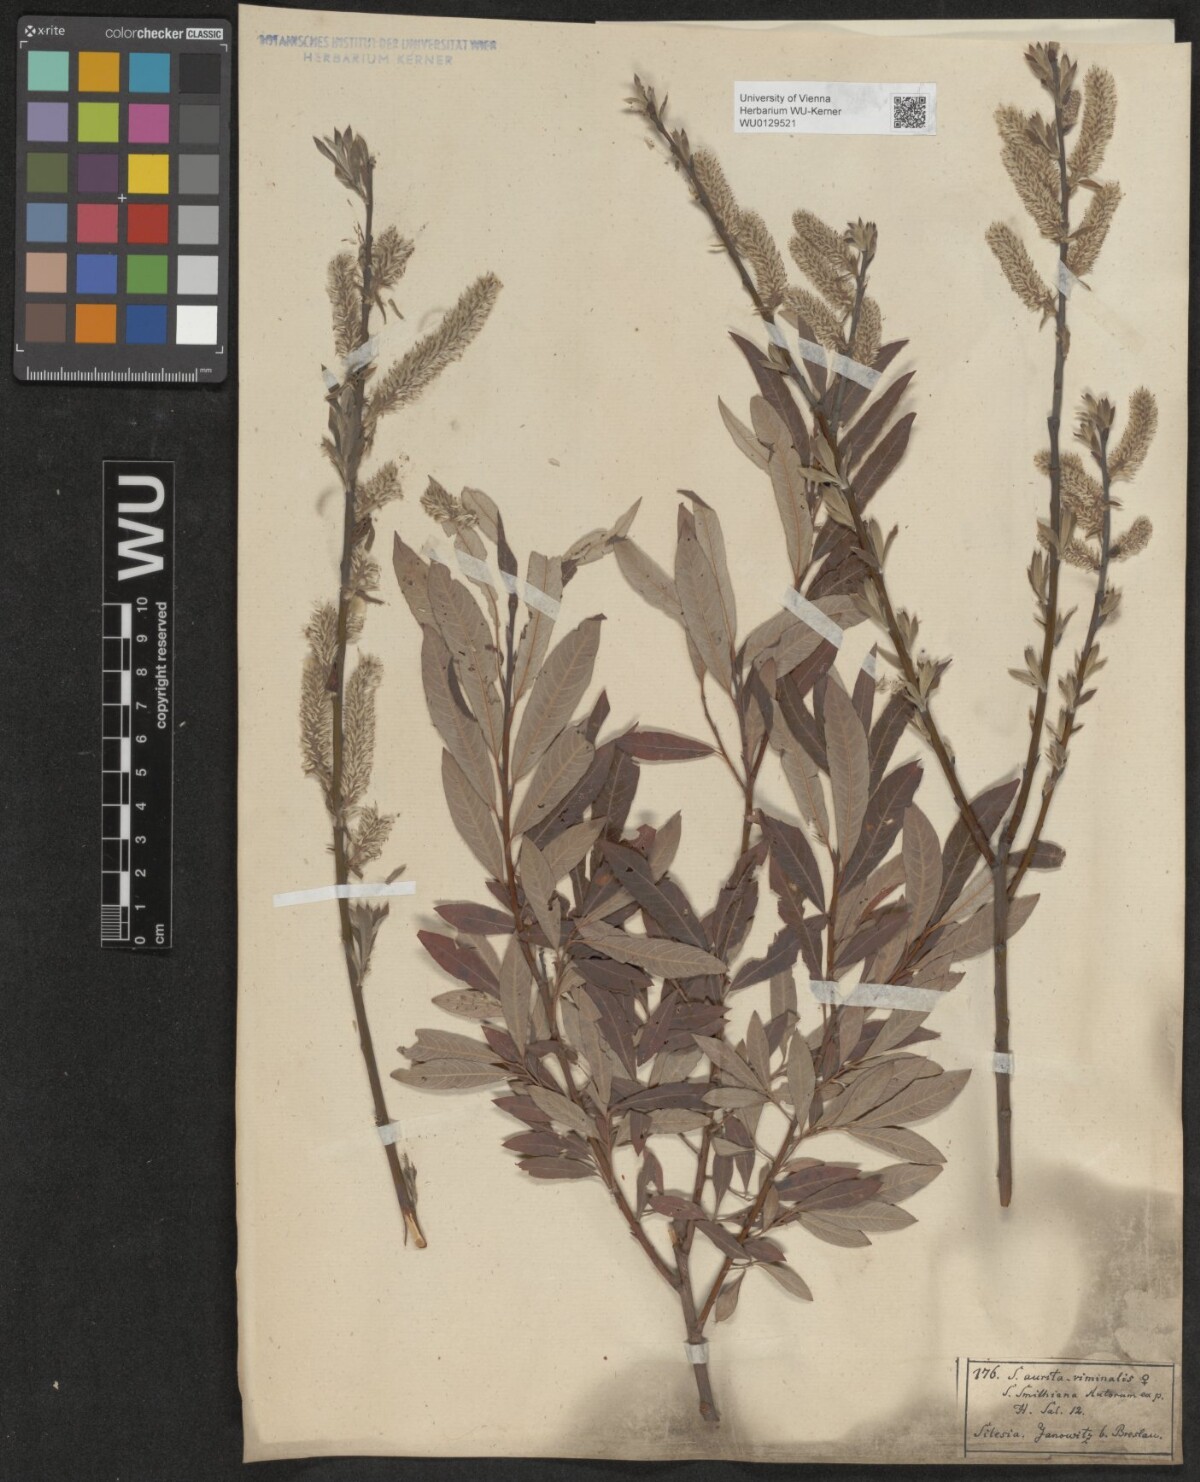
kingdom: Plantae
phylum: Tracheophyta
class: Magnoliopsida
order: Malpighiales
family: Salicaceae
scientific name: Salicaceae
